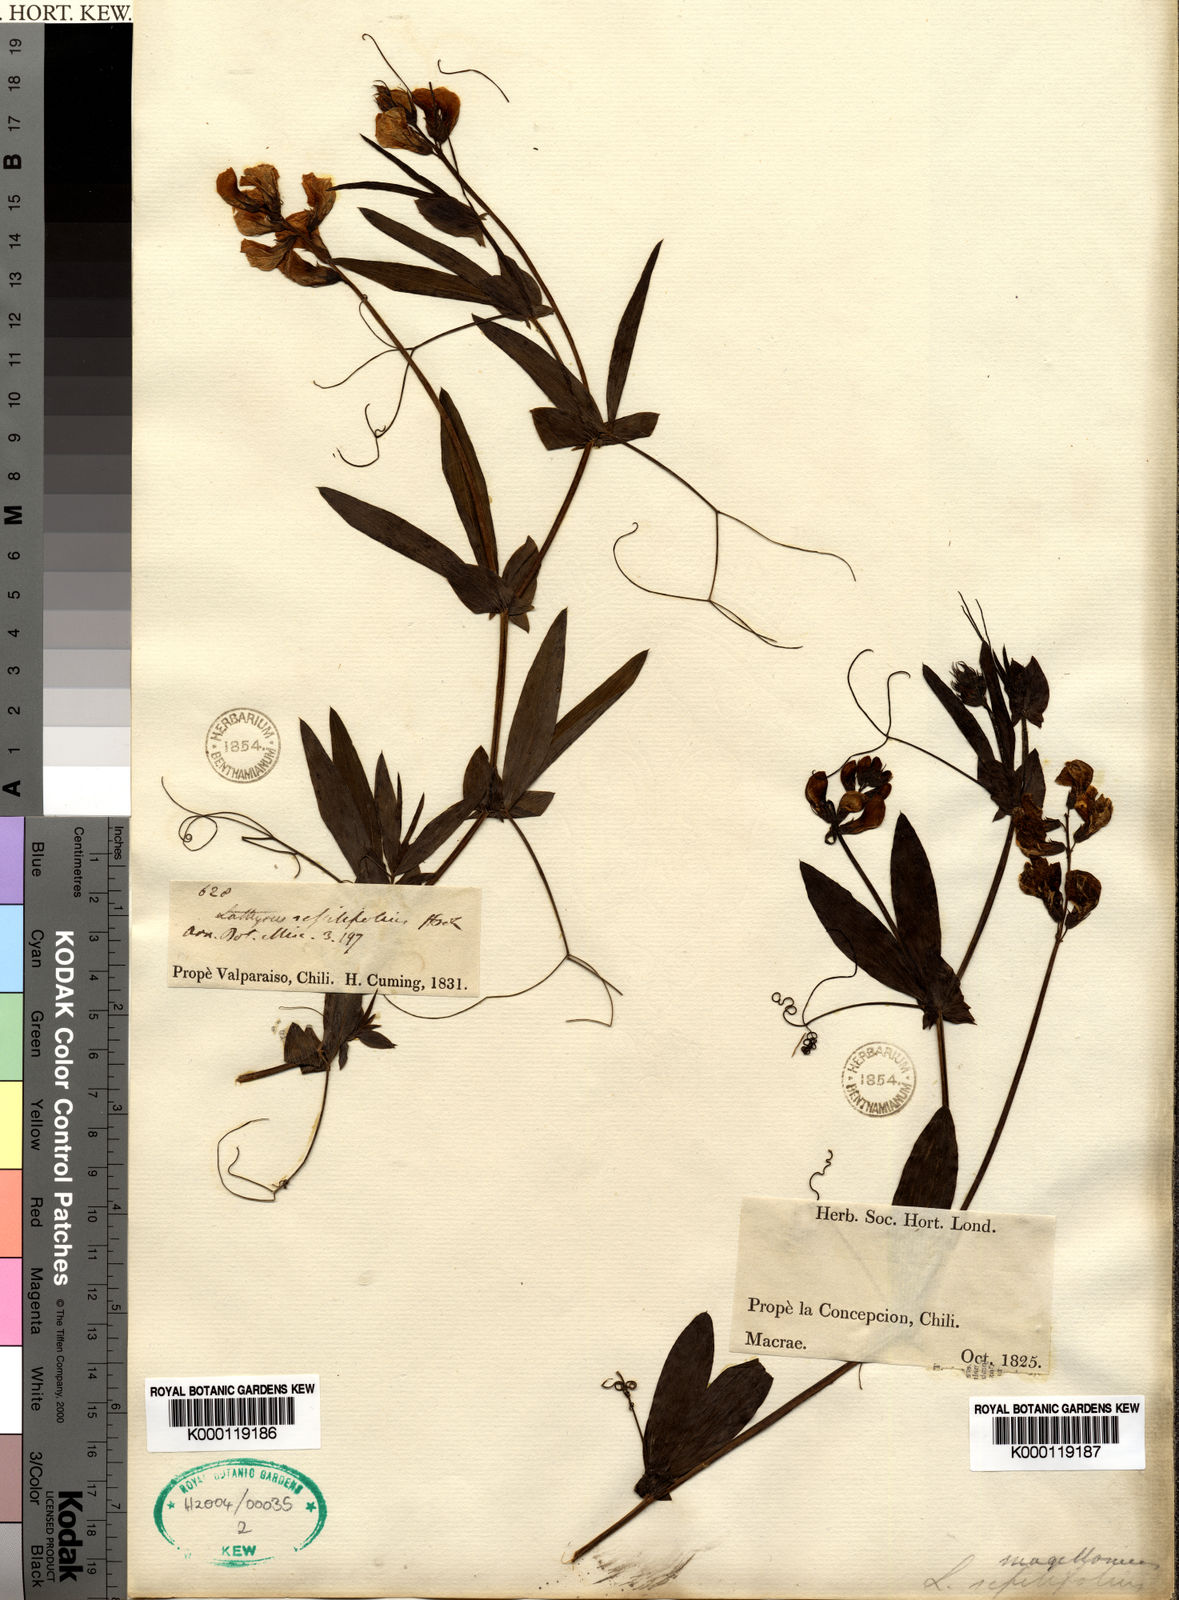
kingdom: Plantae
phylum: Tracheophyta
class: Magnoliopsida
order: Fabales
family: Fabaceae
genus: Lathyrus
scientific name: Lathyrus
